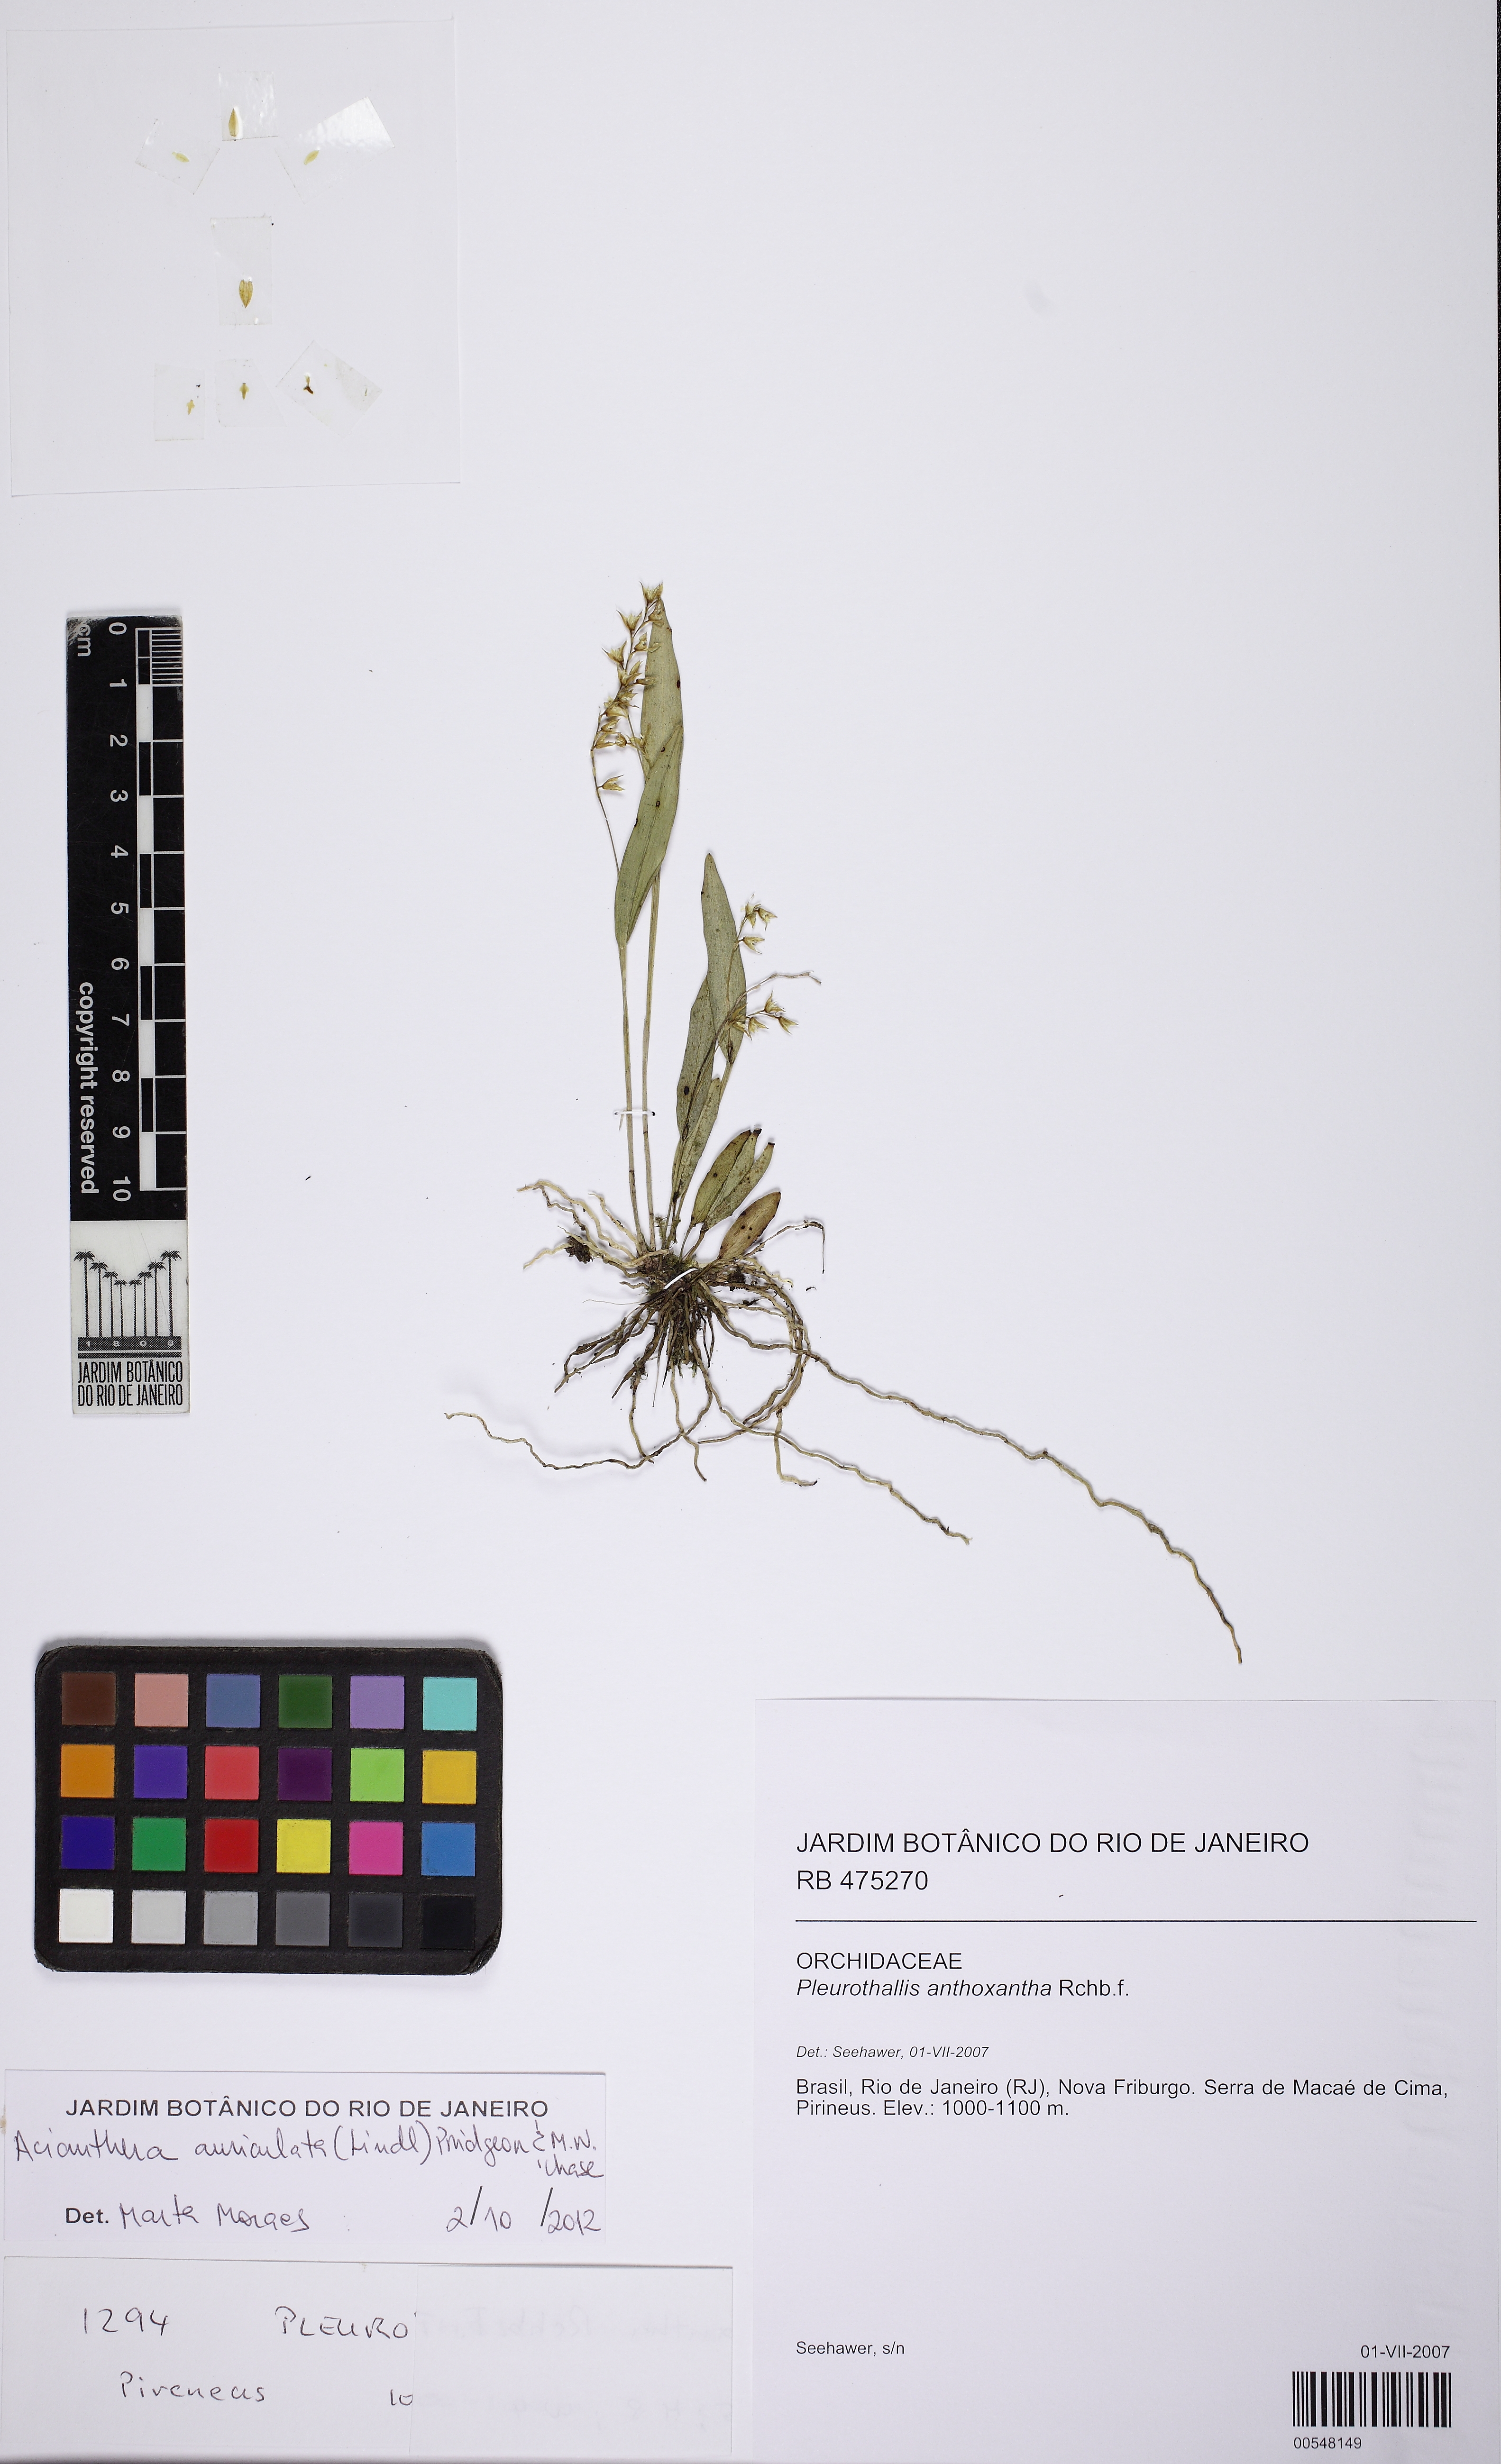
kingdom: Plantae
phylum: Tracheophyta
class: Liliopsida
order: Asparagales
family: Orchidaceae
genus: Acianthera
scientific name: Acianthera auriculata
